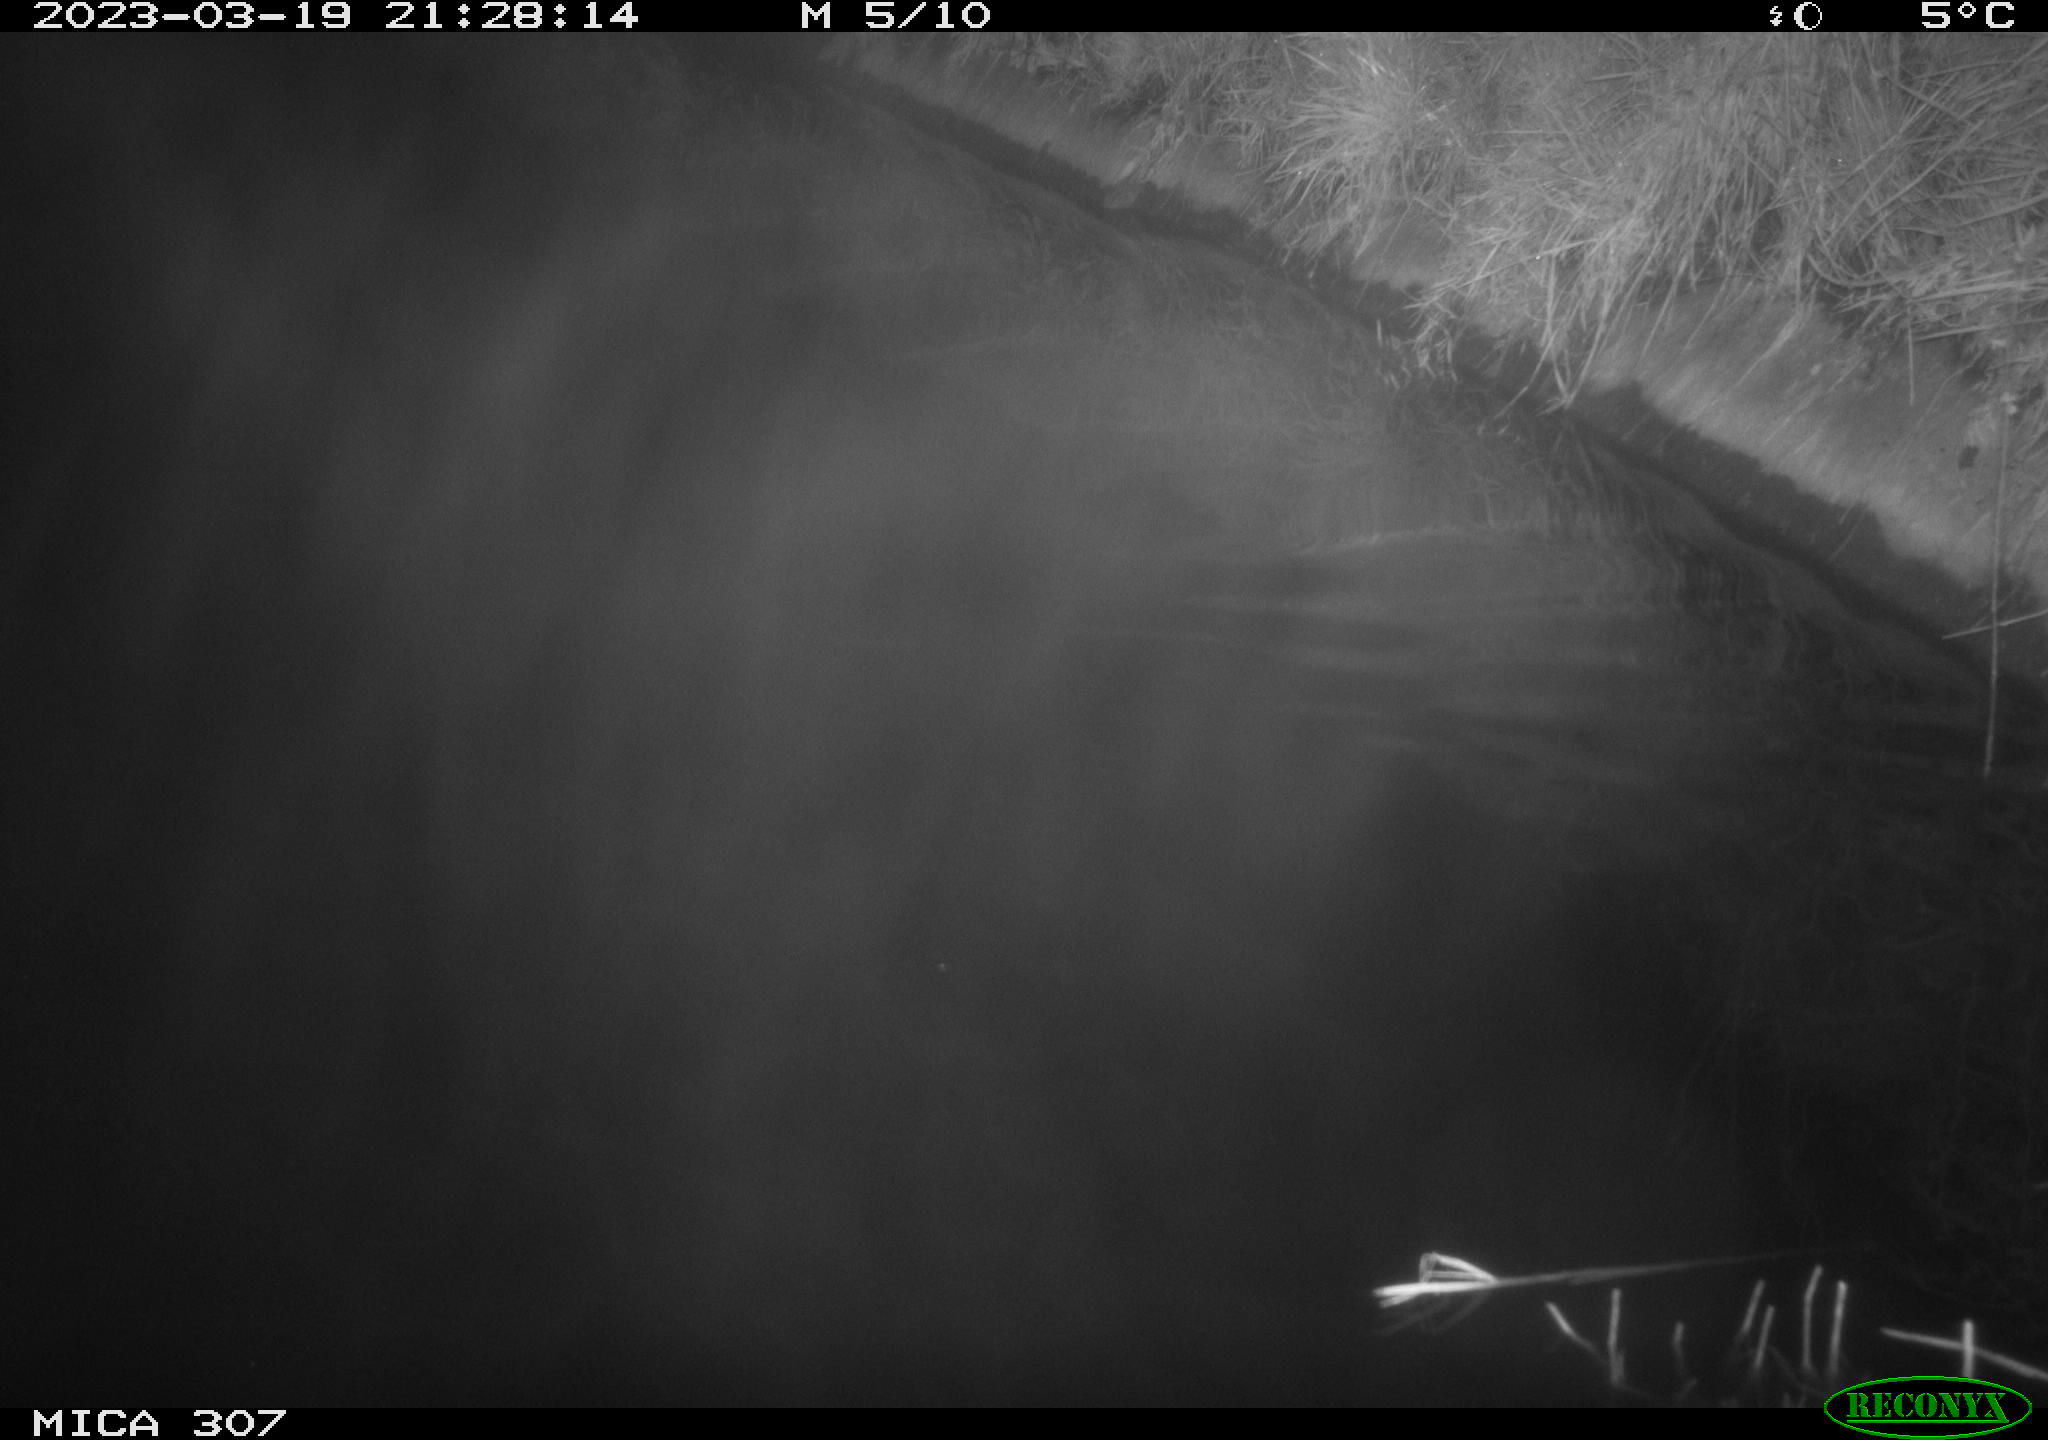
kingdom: Animalia
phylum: Chordata
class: Mammalia
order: Rodentia
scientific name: Rodentia
